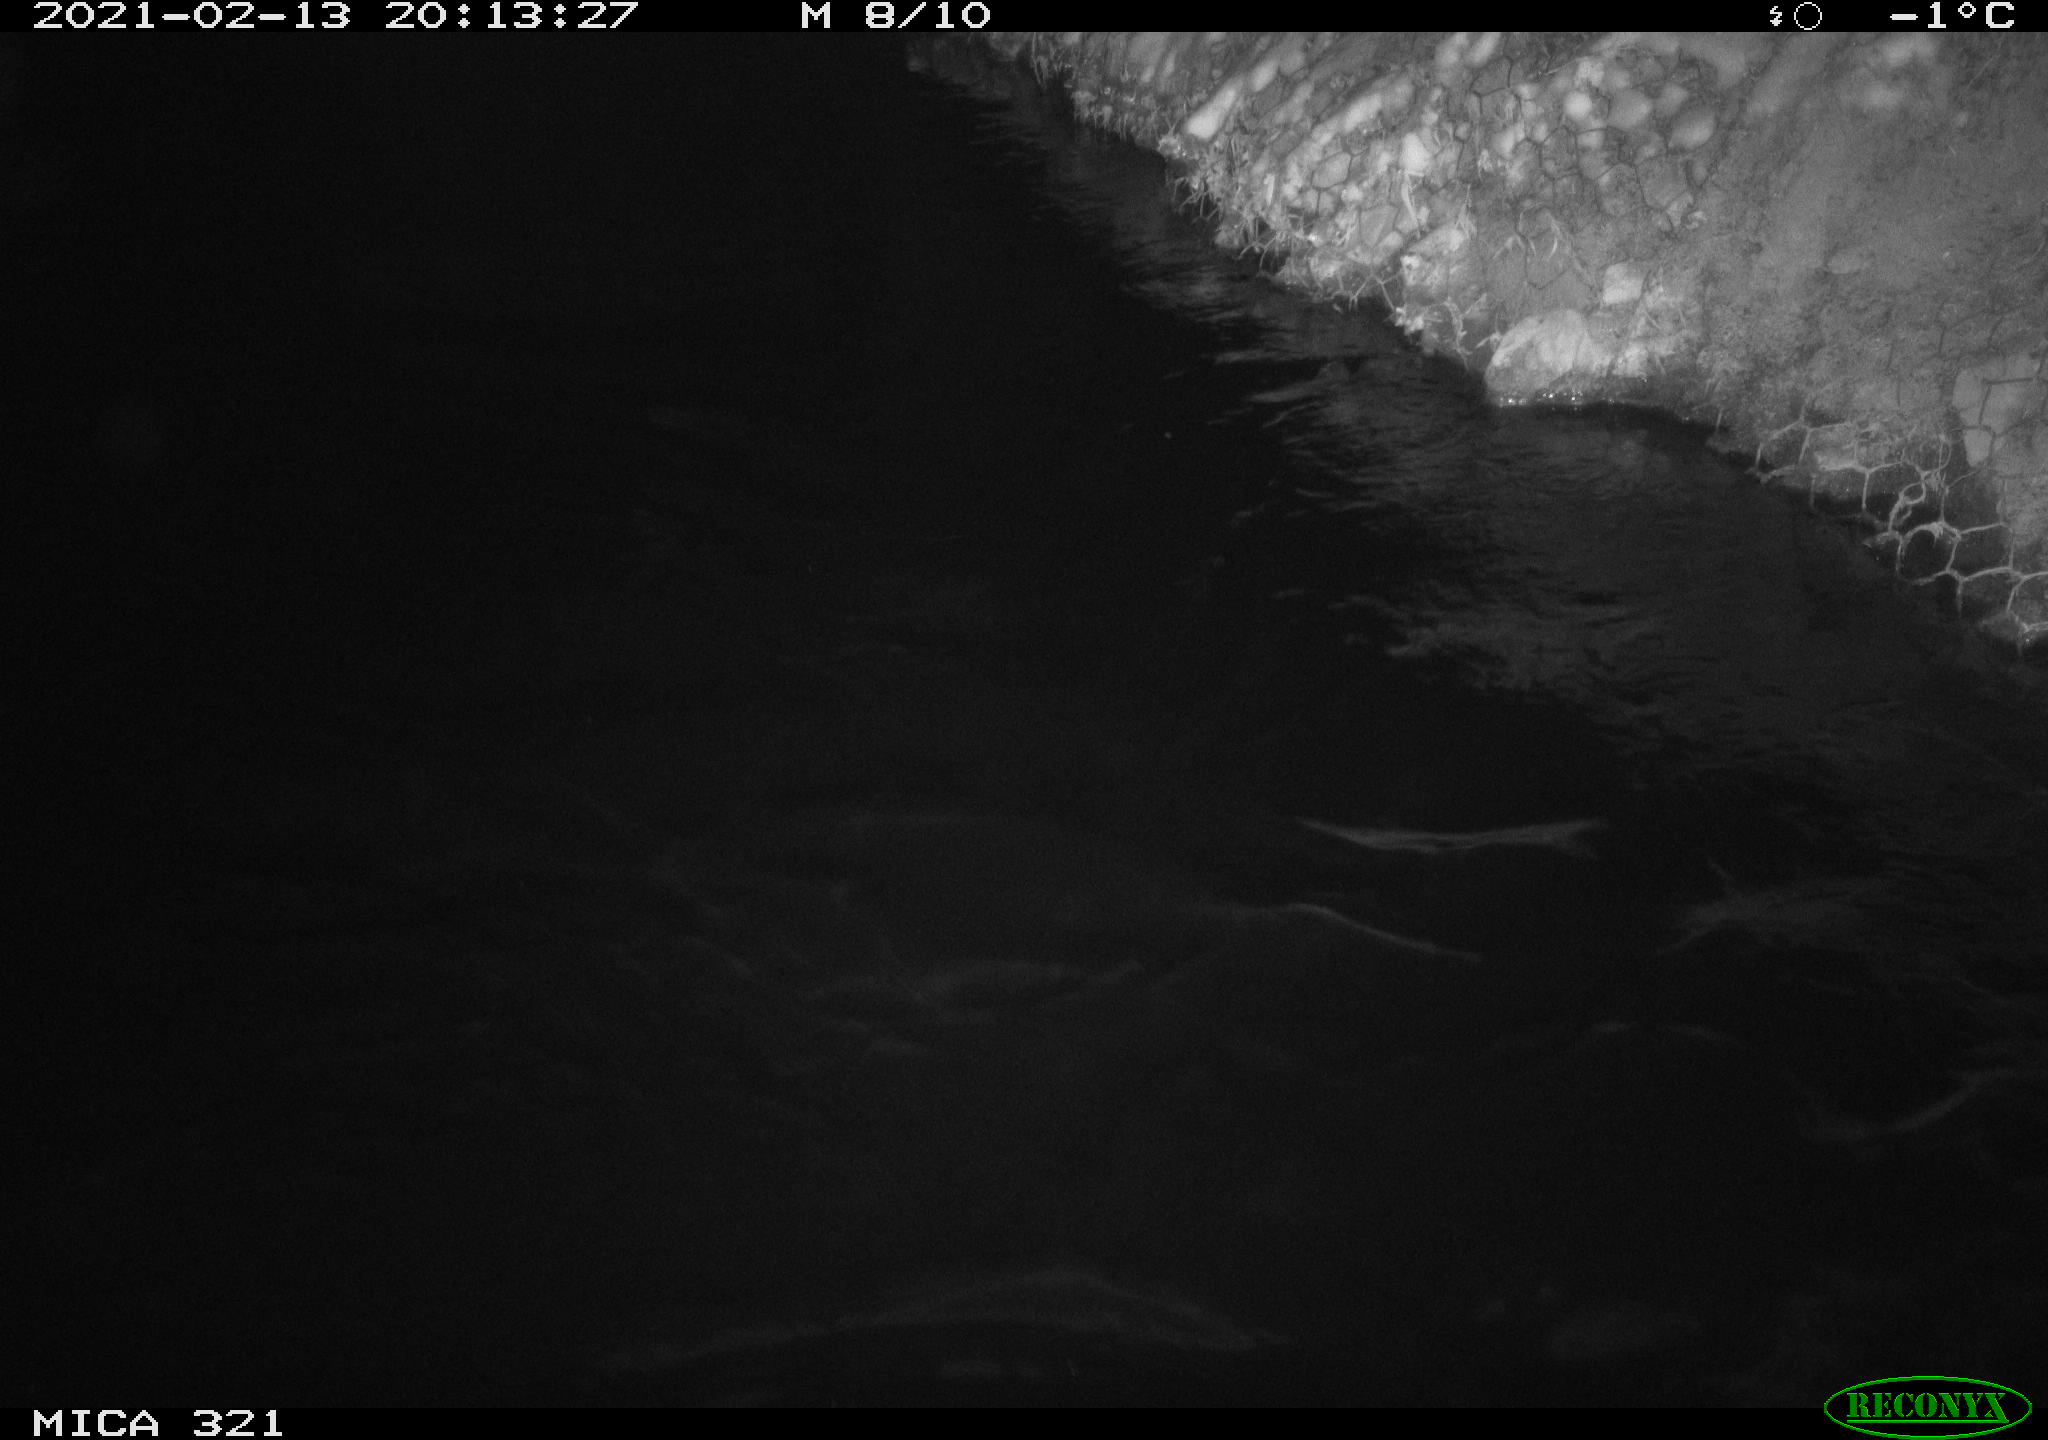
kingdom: Animalia
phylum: Chordata
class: Aves
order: Anseriformes
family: Anatidae
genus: Anas
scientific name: Anas platyrhynchos
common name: Mallard
